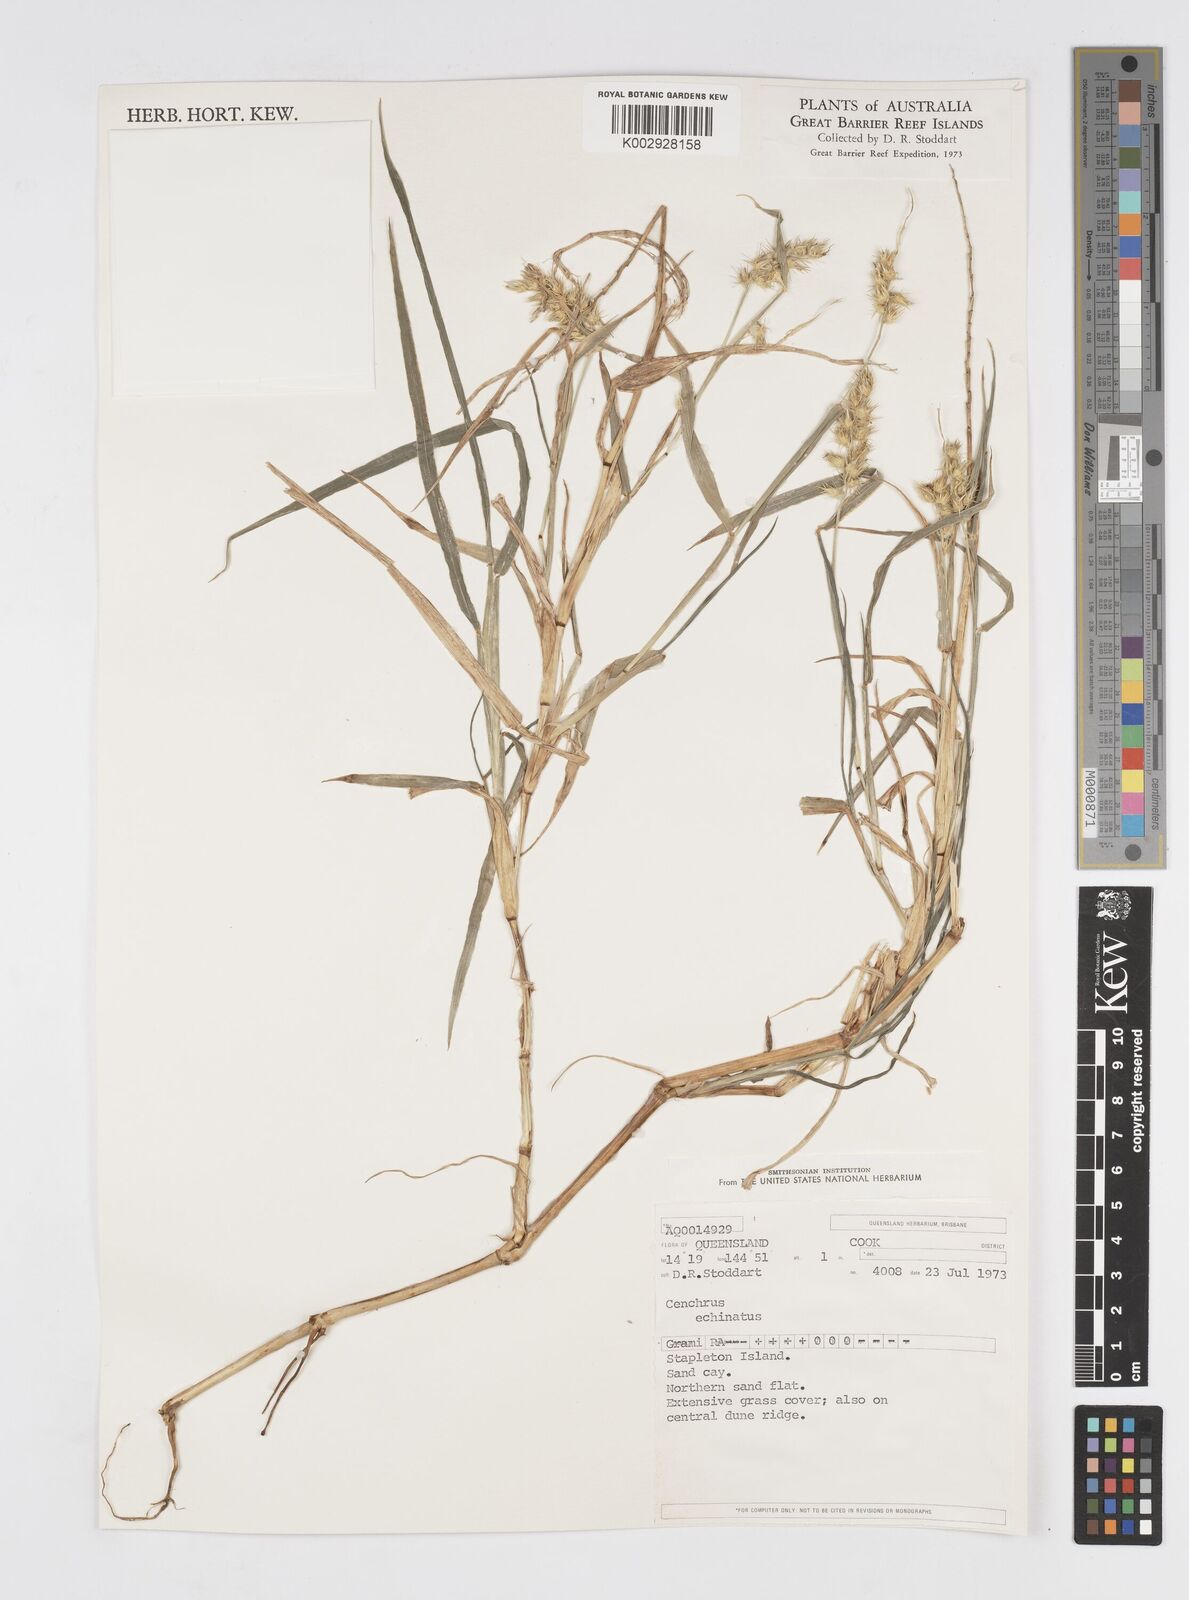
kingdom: Plantae
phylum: Tracheophyta
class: Liliopsida
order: Poales
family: Poaceae
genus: Cenchrus
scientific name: Cenchrus echinatus
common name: Southern sandbur
